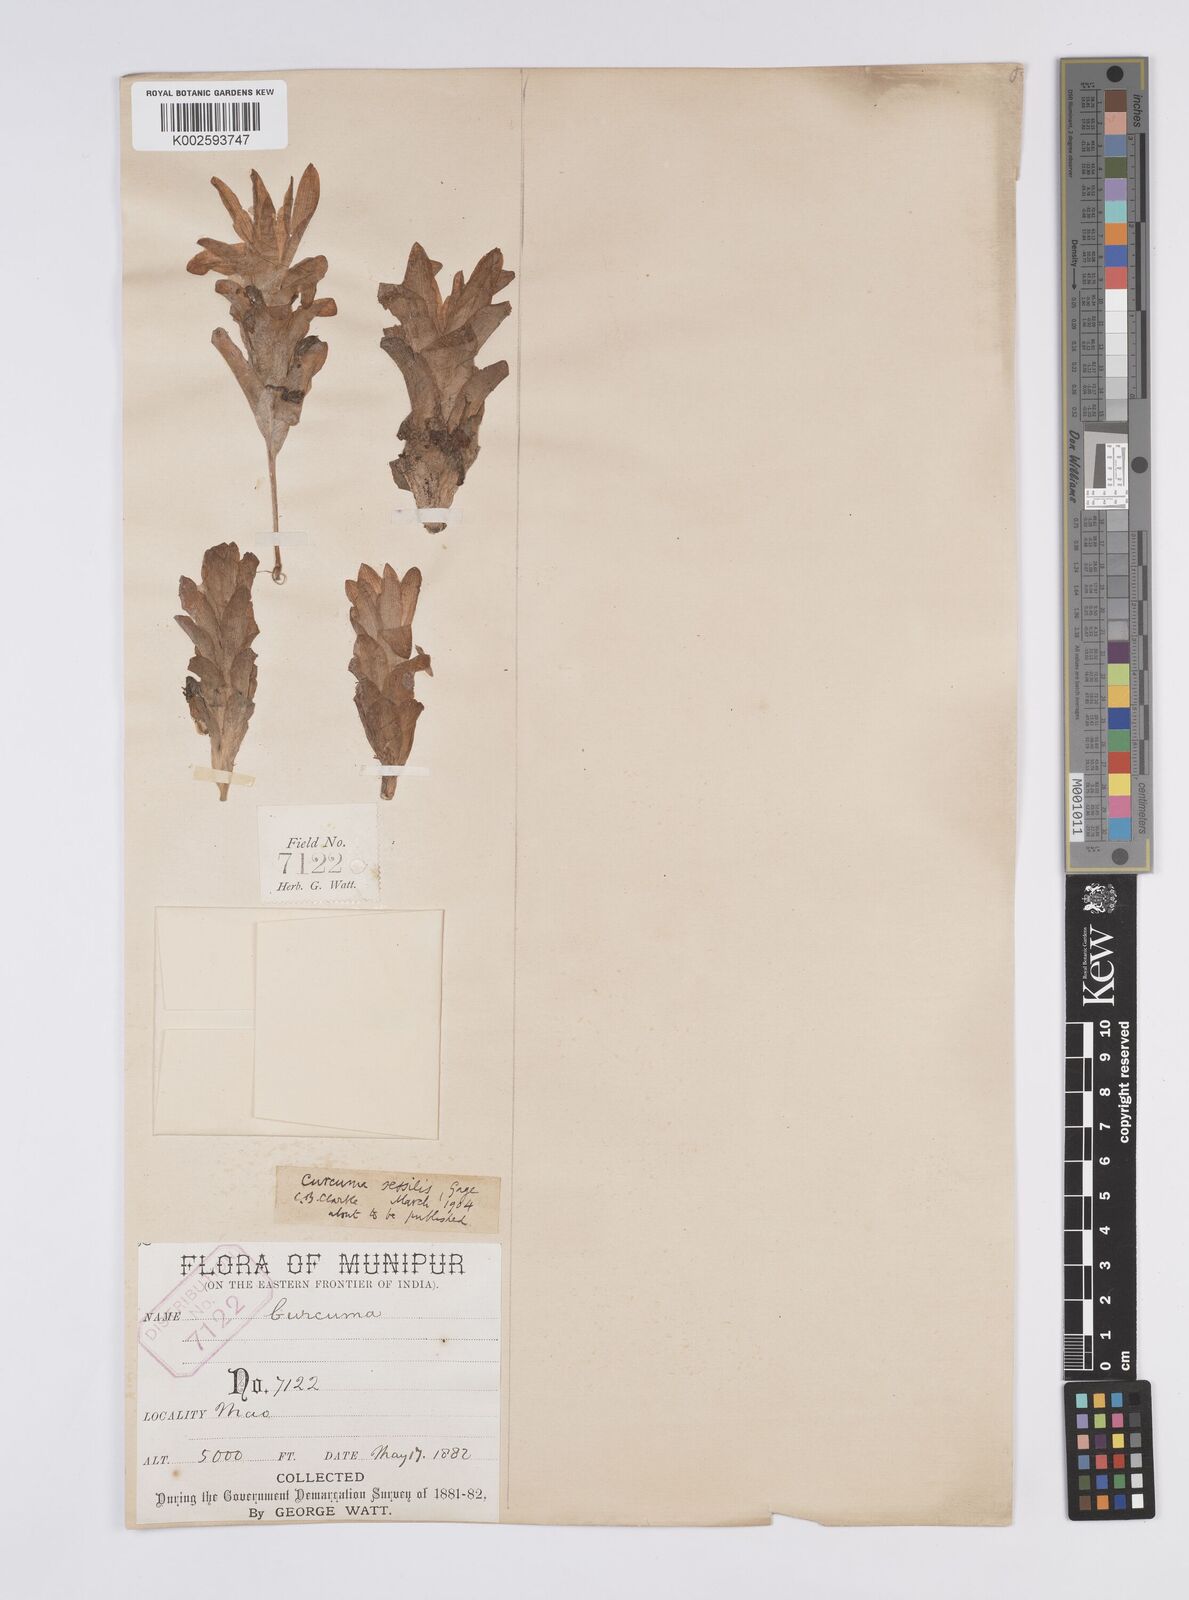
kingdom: Plantae
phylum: Tracheophyta
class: Liliopsida
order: Zingiberales
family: Zingiberaceae
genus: Curcuma
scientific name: Curcuma sessilis
